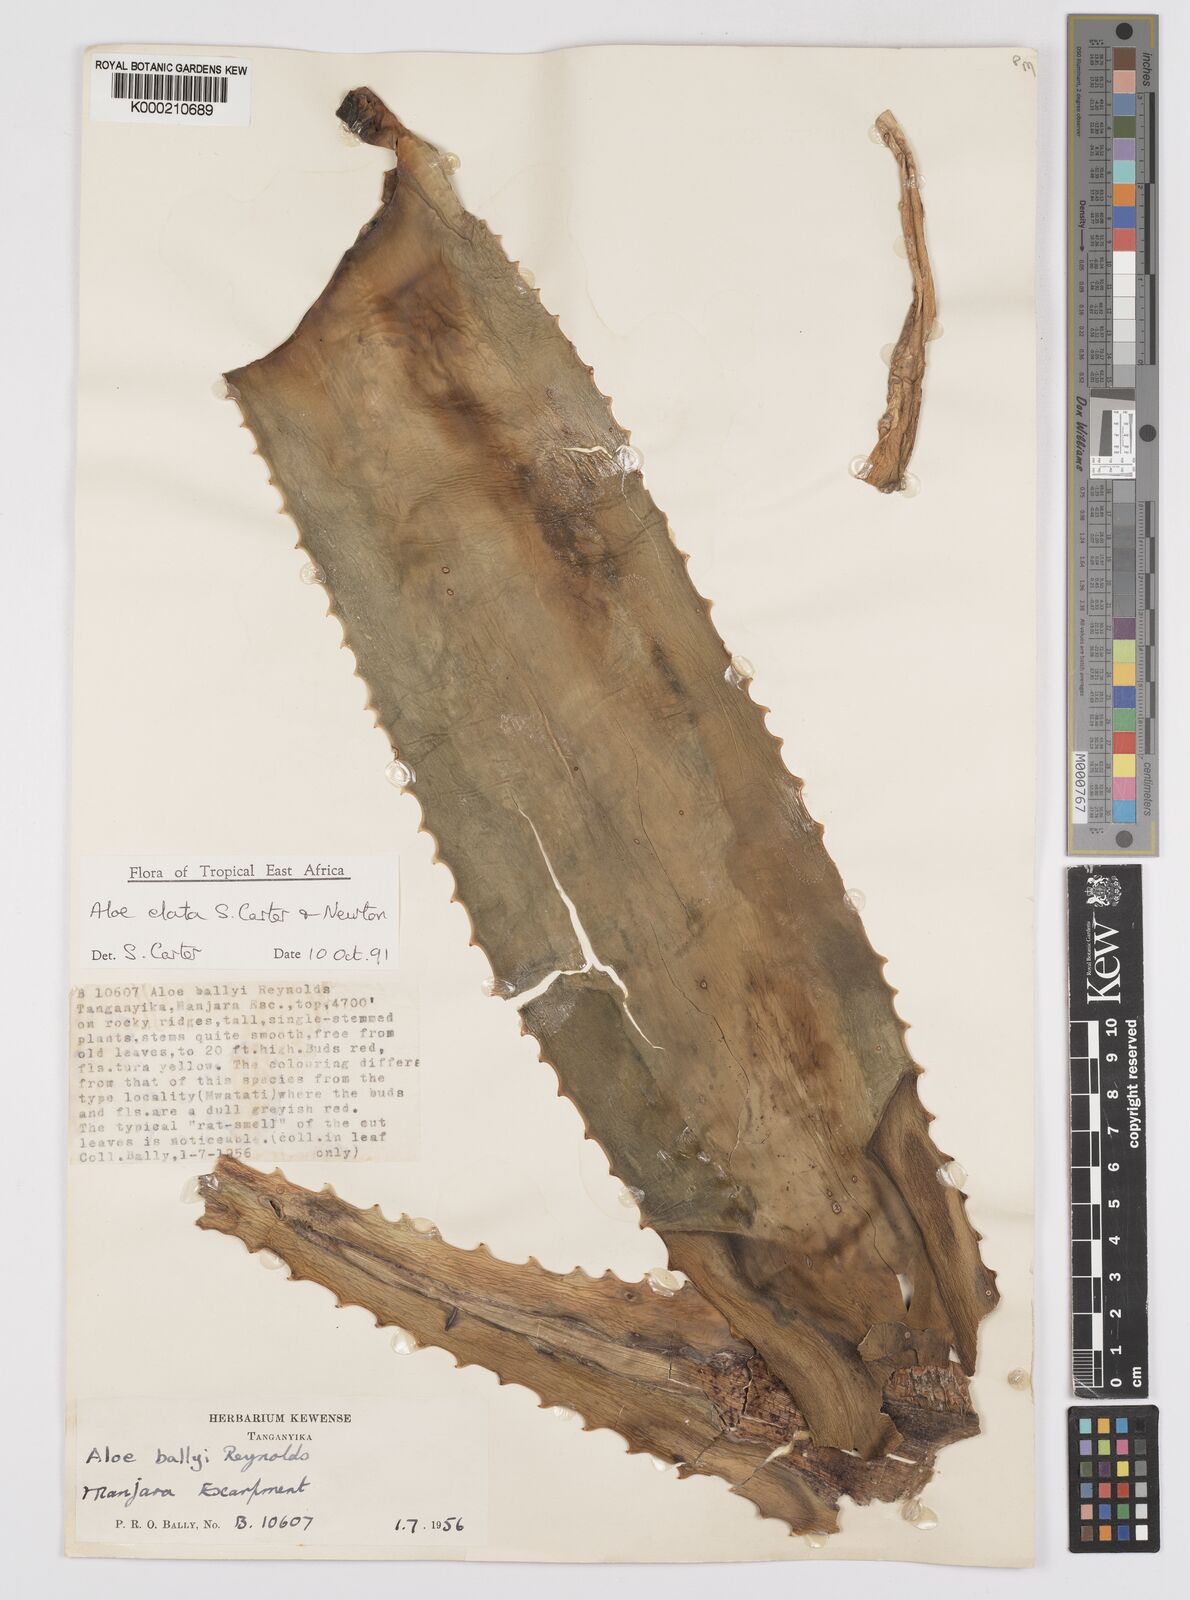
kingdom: Plantae
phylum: Tracheophyta
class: Liliopsida
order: Asparagales
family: Asphodelaceae
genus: Aloe
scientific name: Aloe elata
